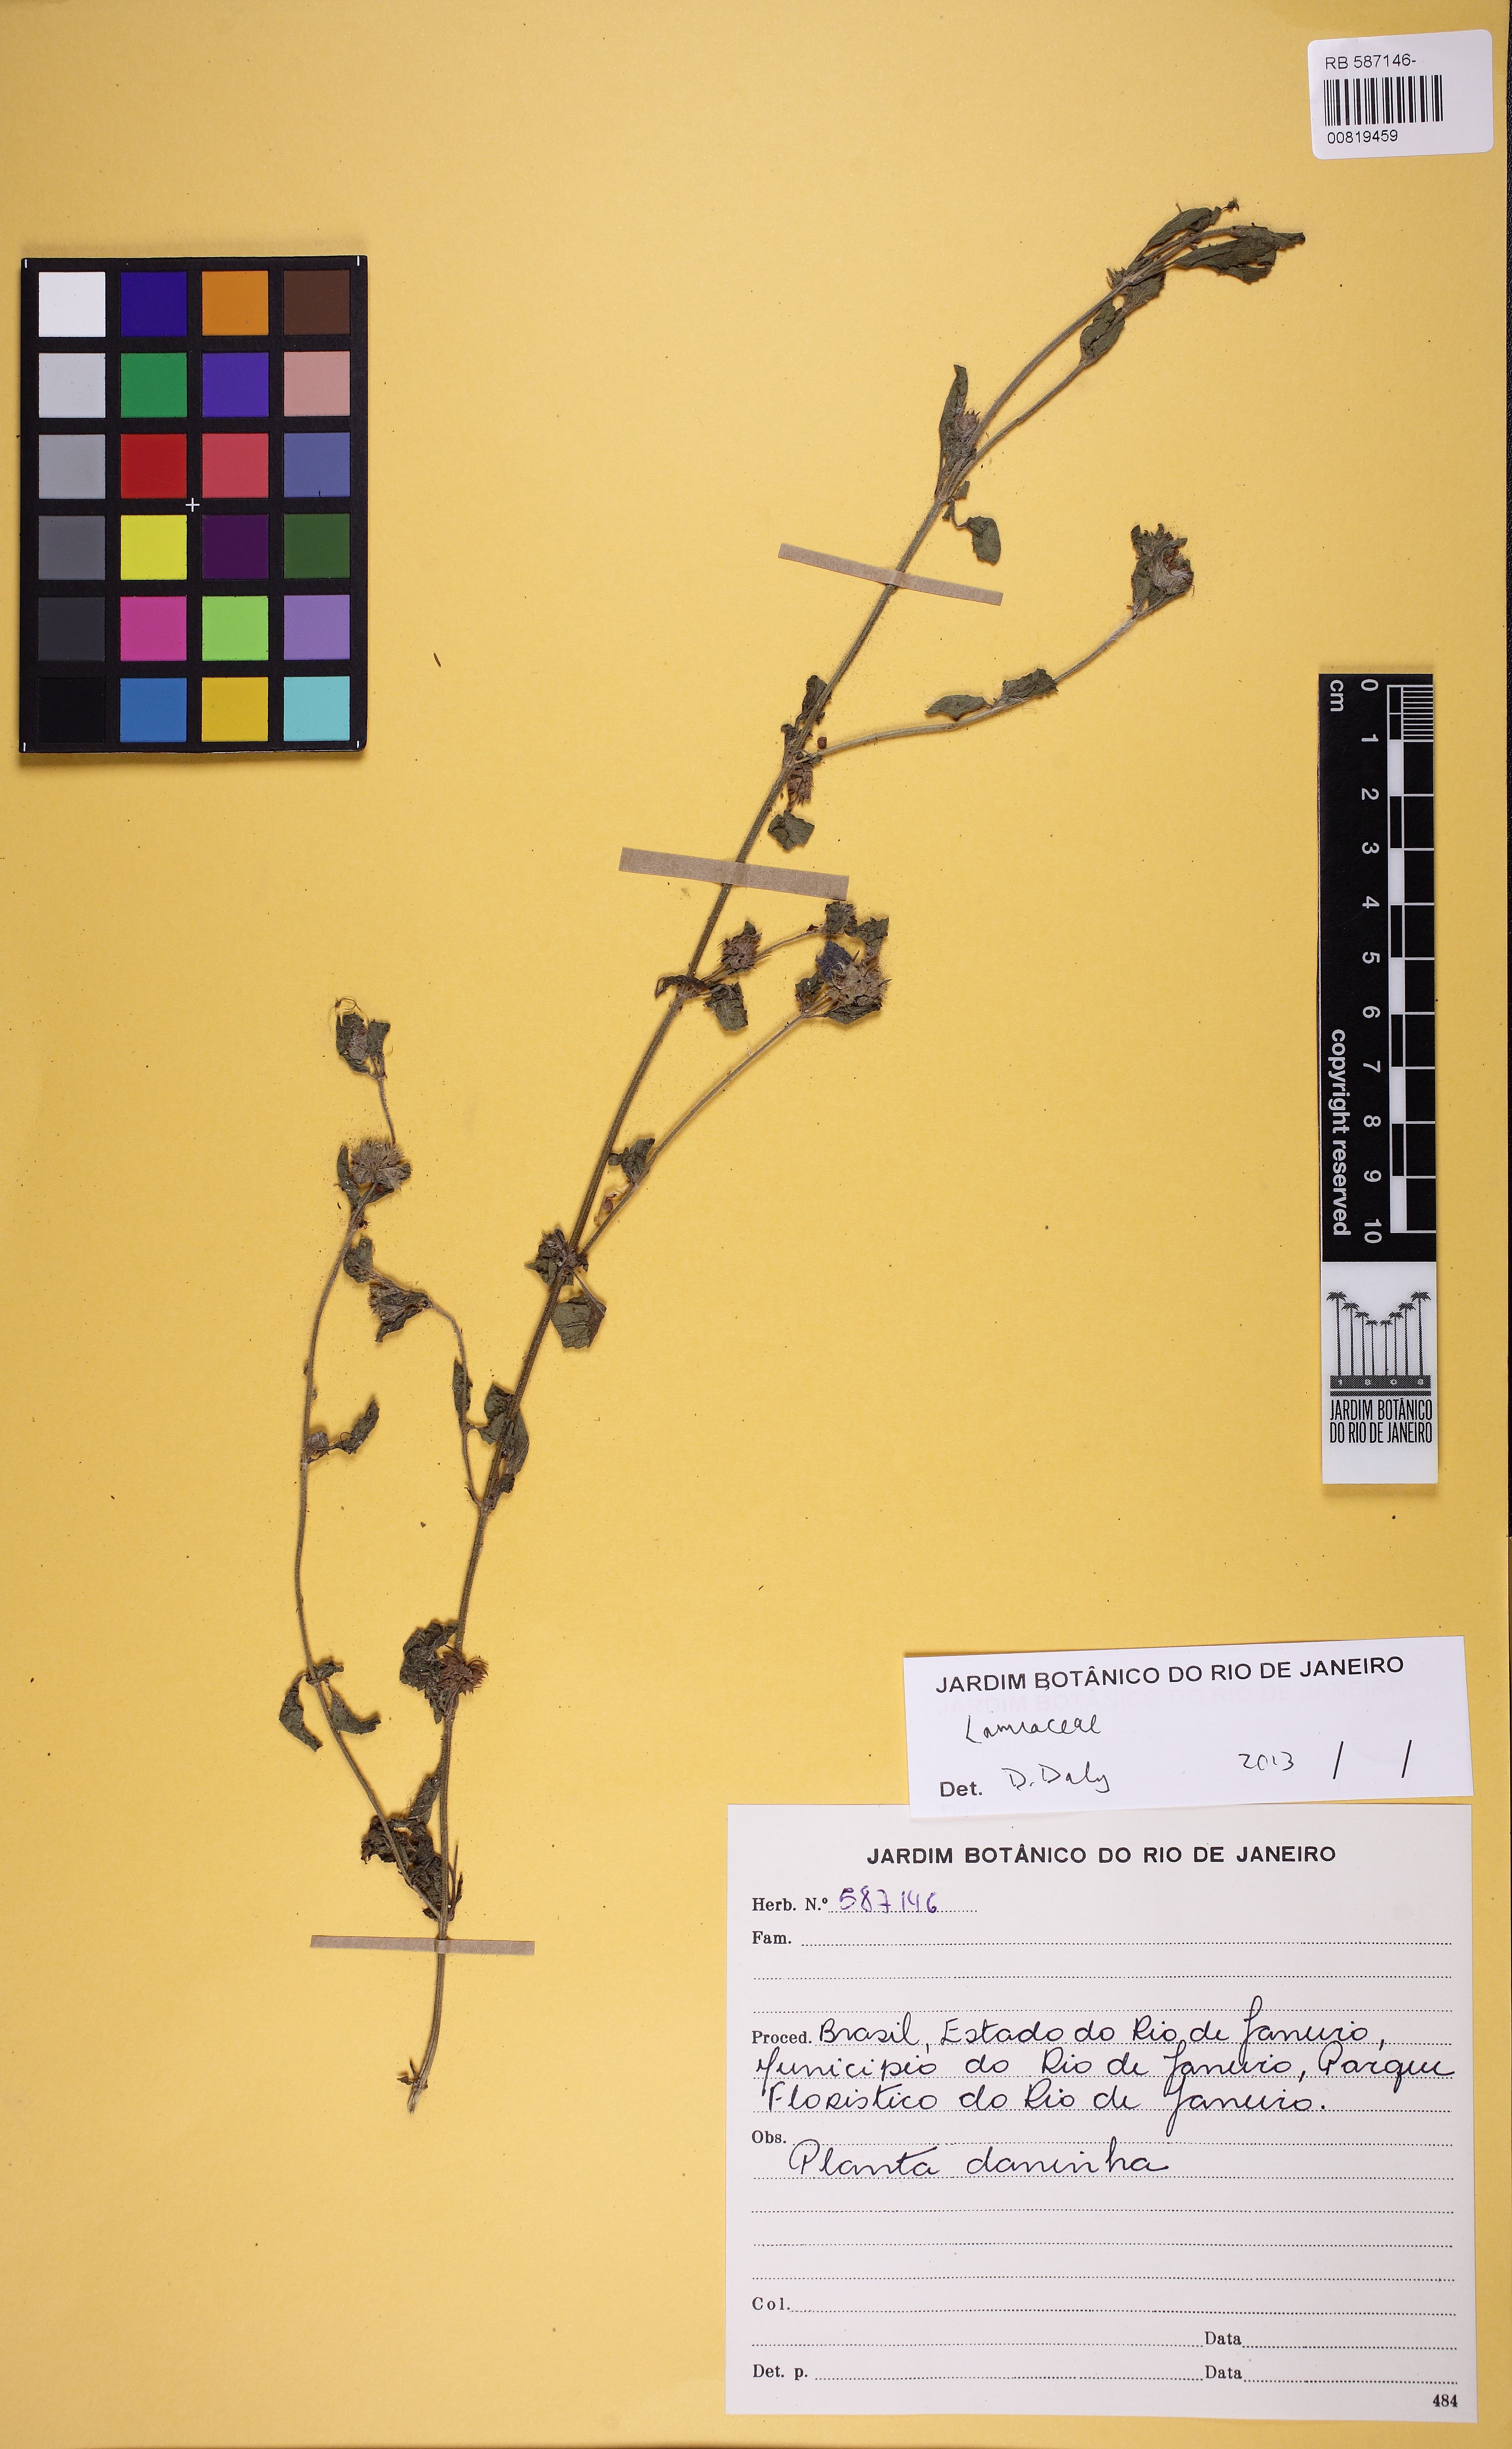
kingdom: Plantae
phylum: Tracheophyta
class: Magnoliopsida
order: Lamiales
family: Lamiaceae
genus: Marsypianthes
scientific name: Marsypianthes
